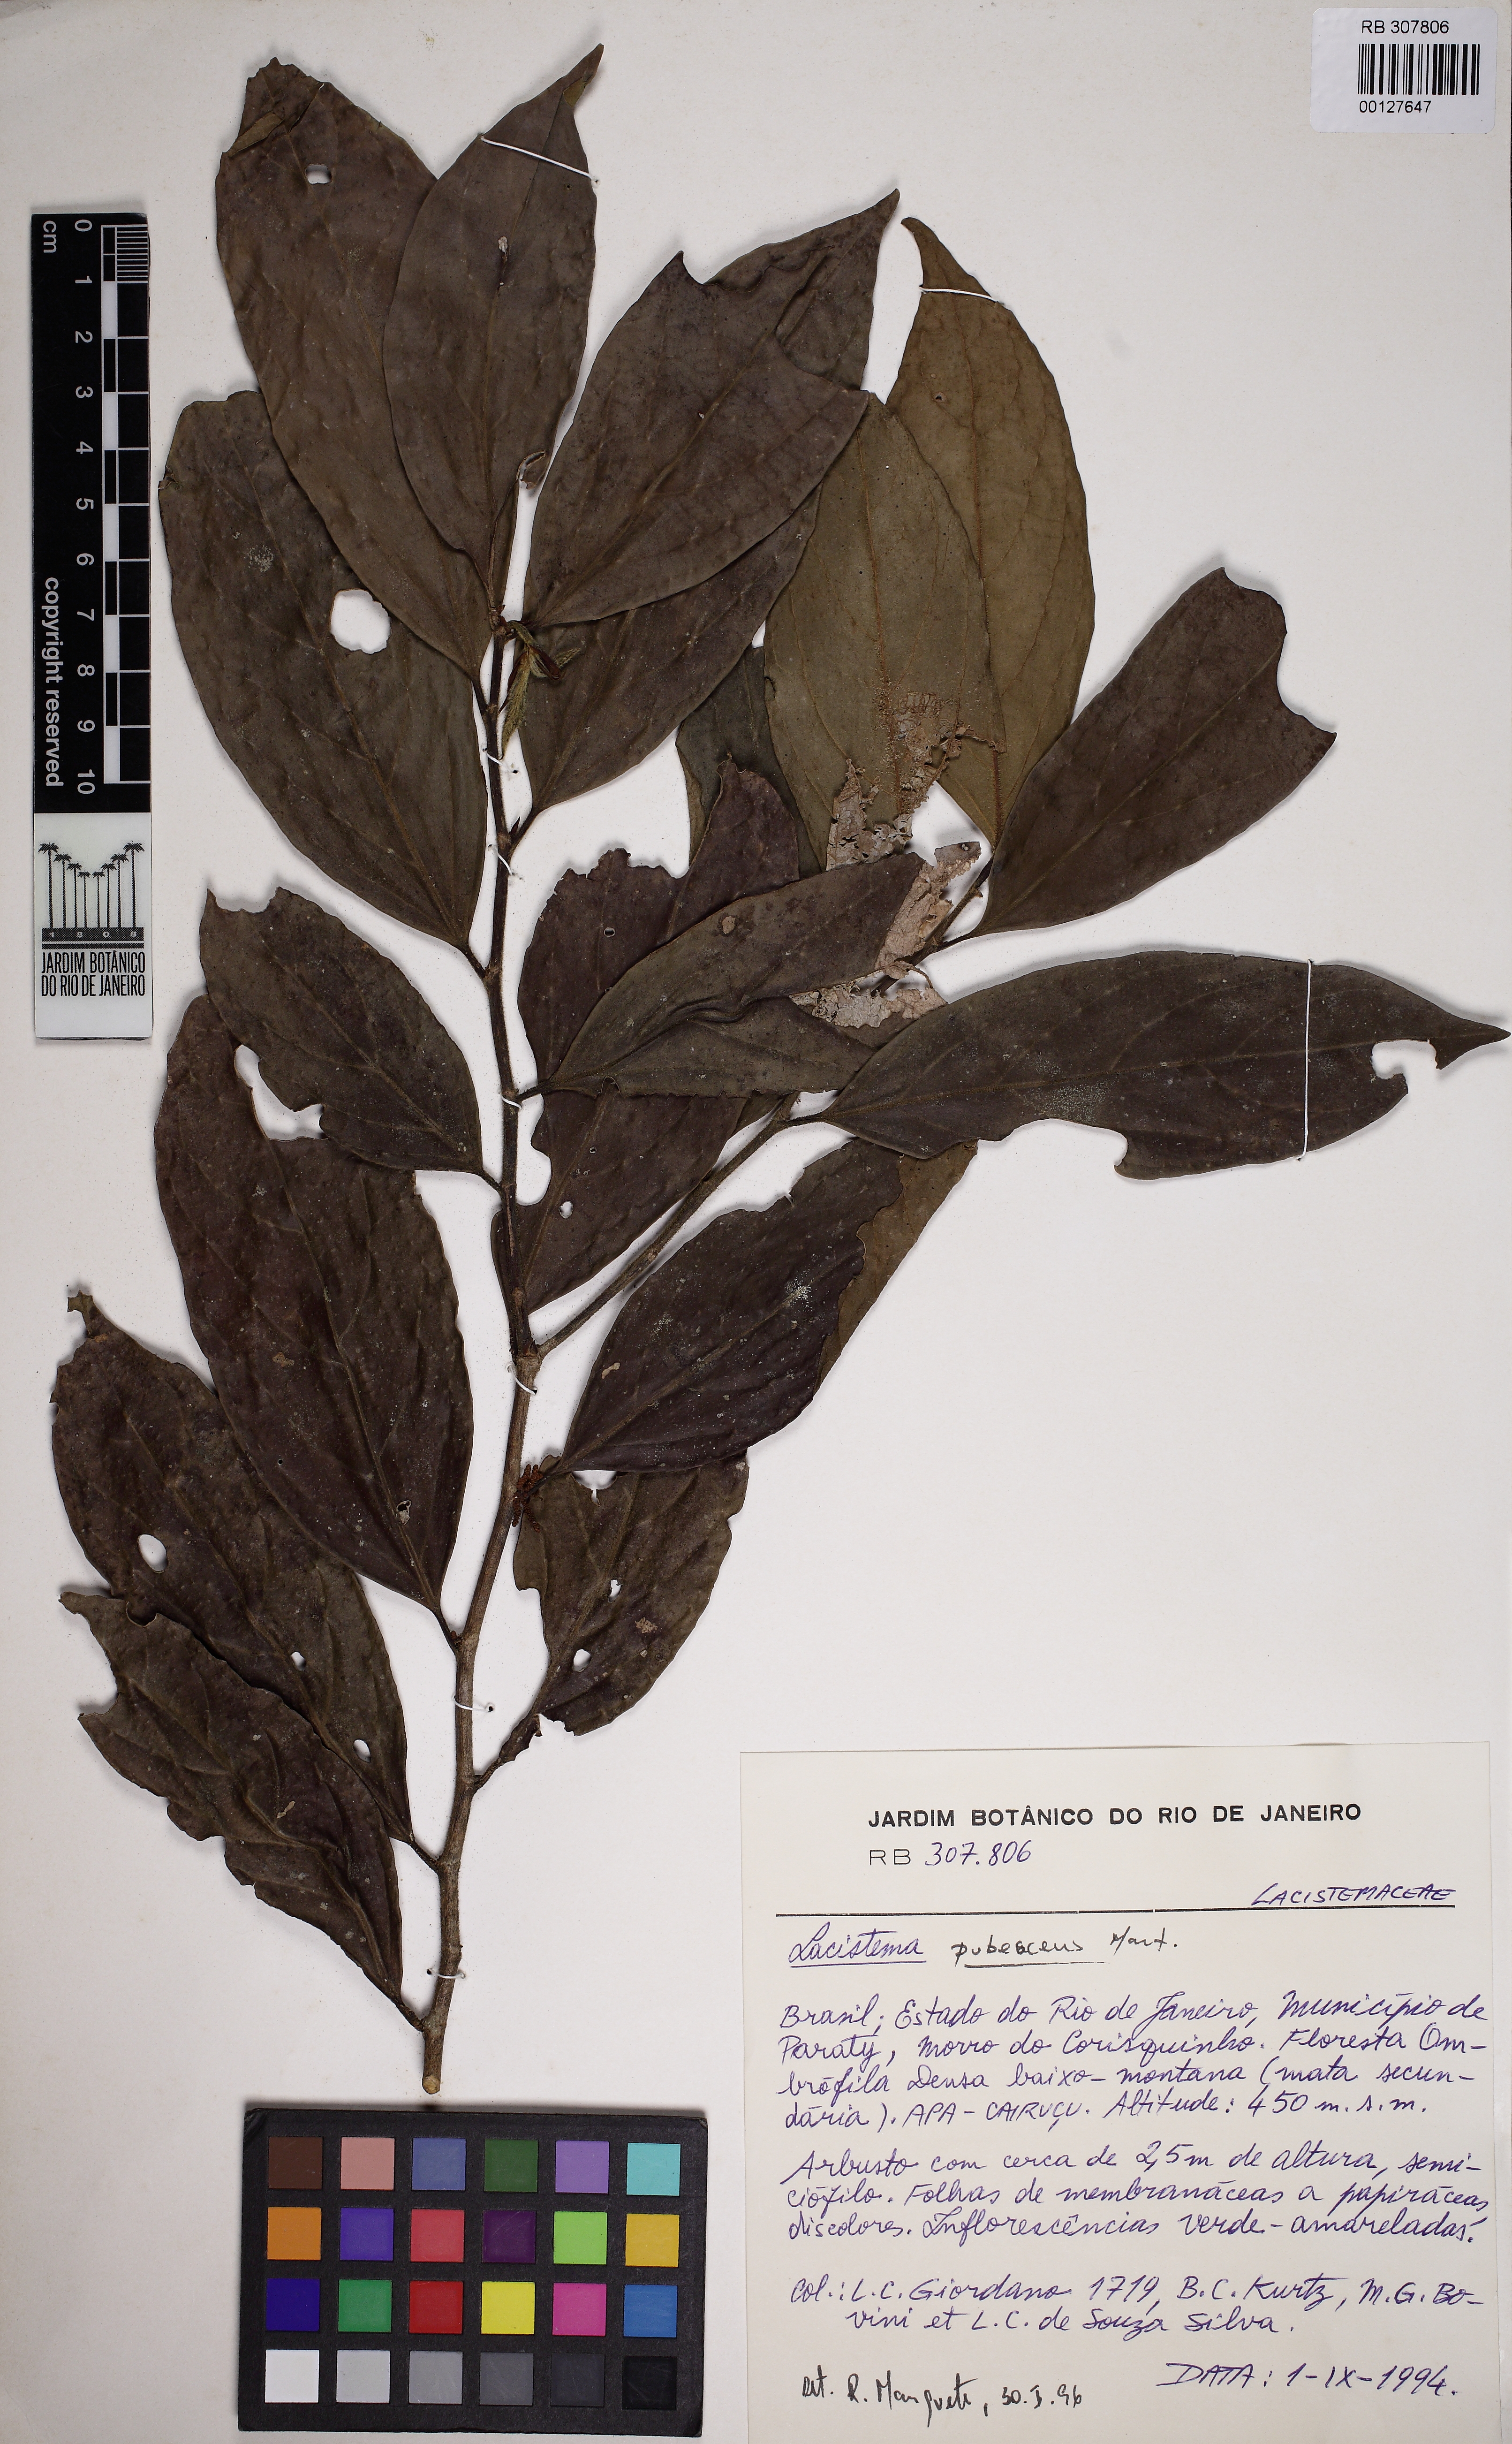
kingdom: Plantae
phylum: Tracheophyta
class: Magnoliopsida
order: Malpighiales
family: Lacistemataceae
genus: Lacistema
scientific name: Lacistema pubescens
